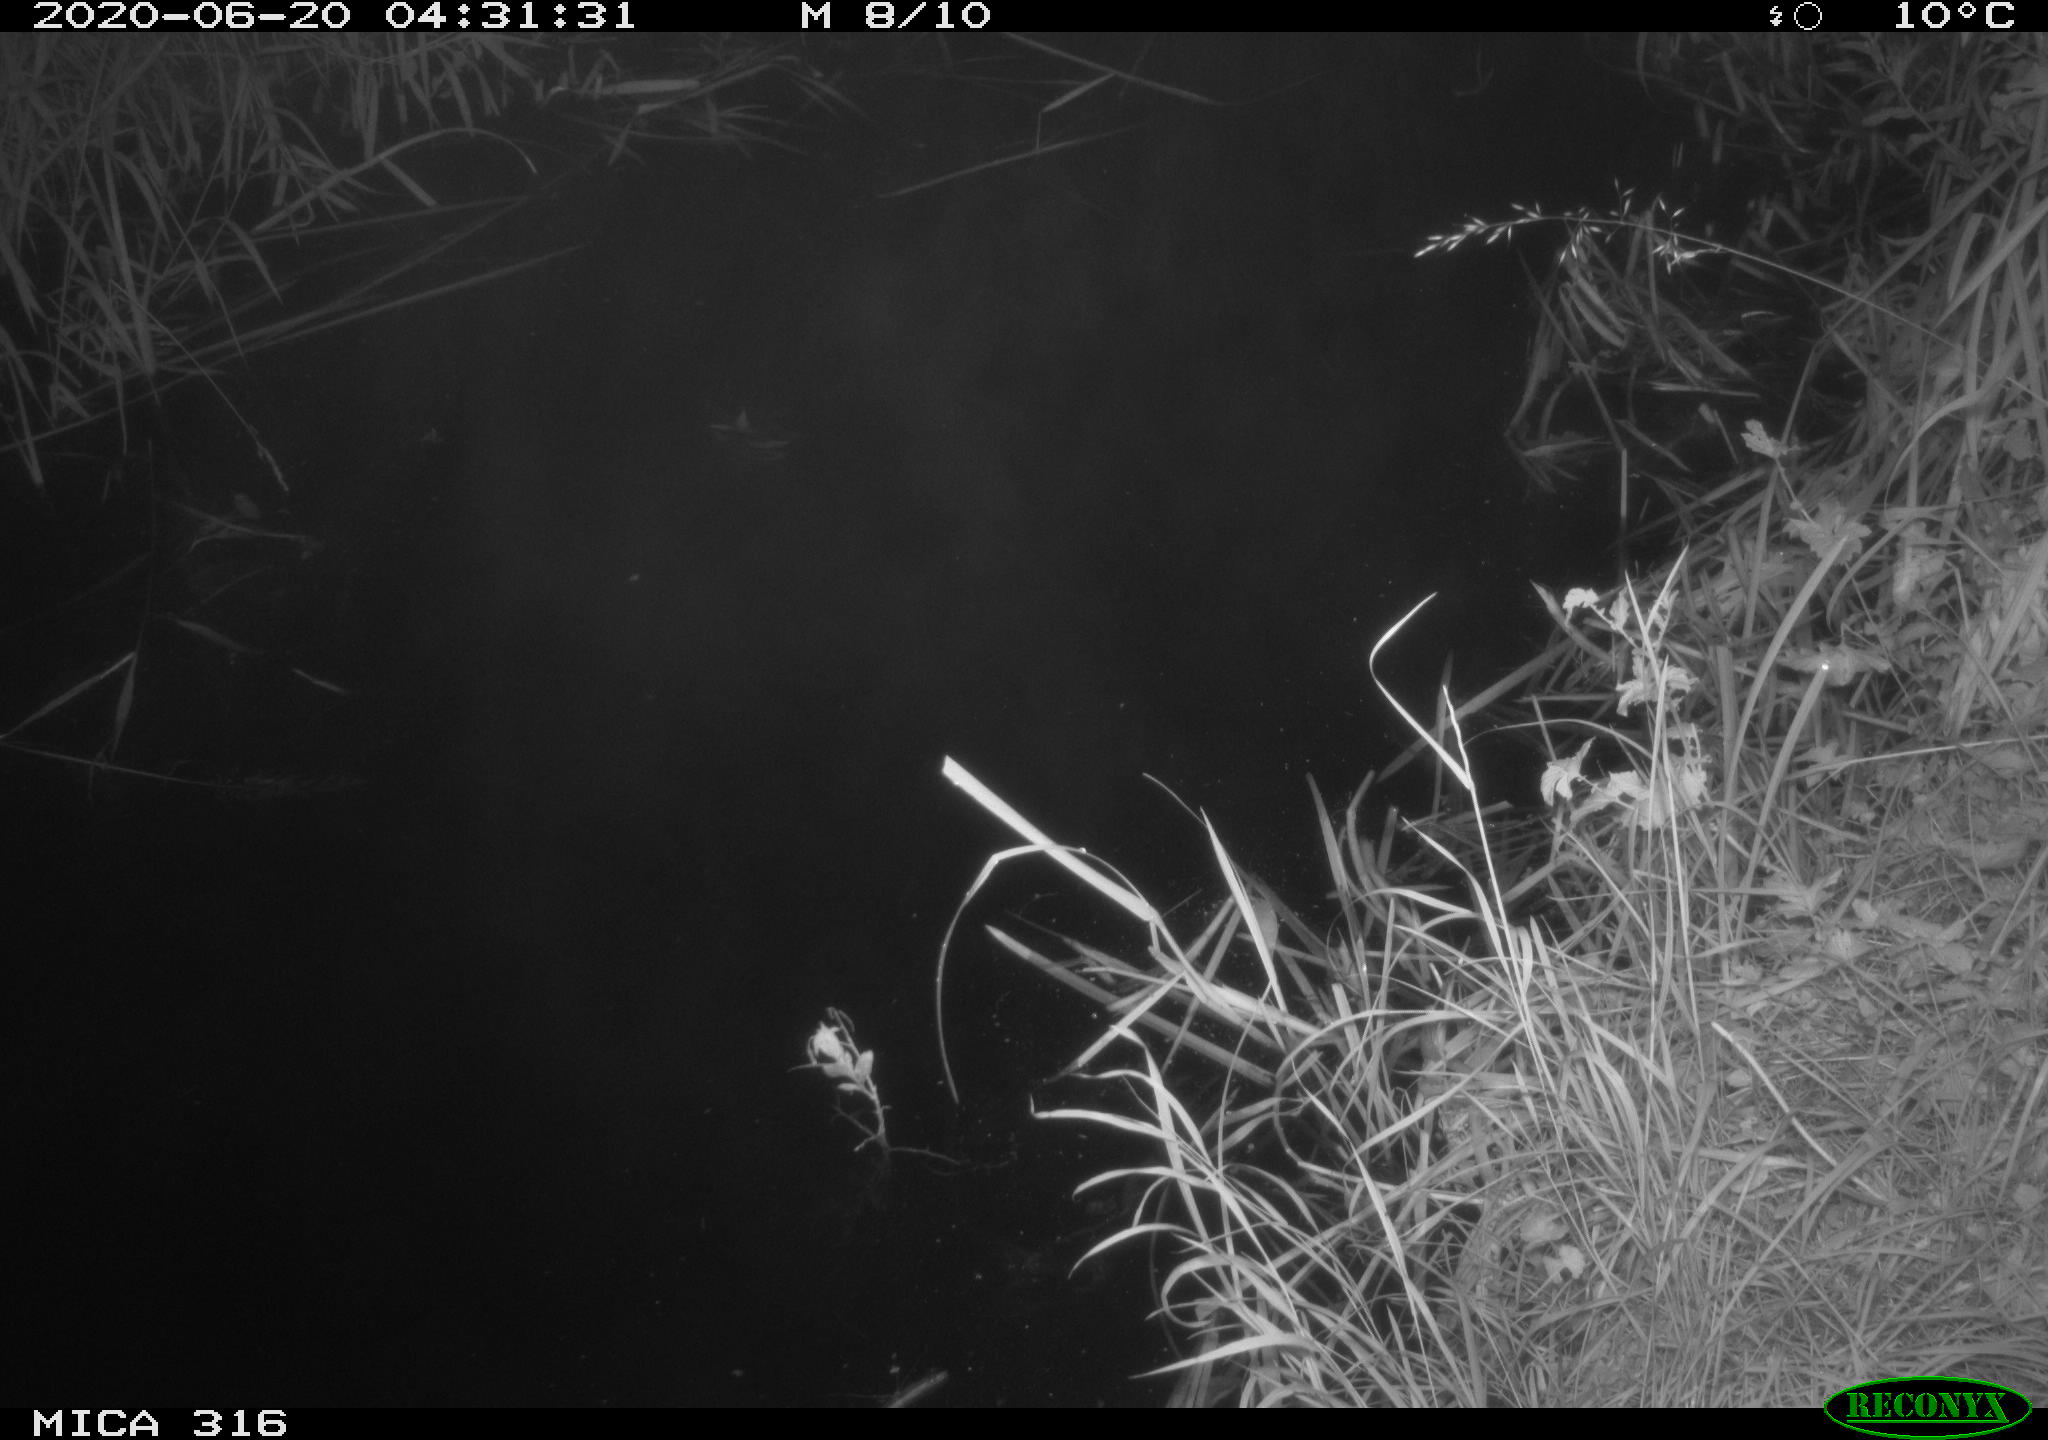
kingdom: Animalia
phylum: Chordata
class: Aves
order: Anseriformes
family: Anatidae
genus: Anas
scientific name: Anas platyrhynchos
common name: Mallard
